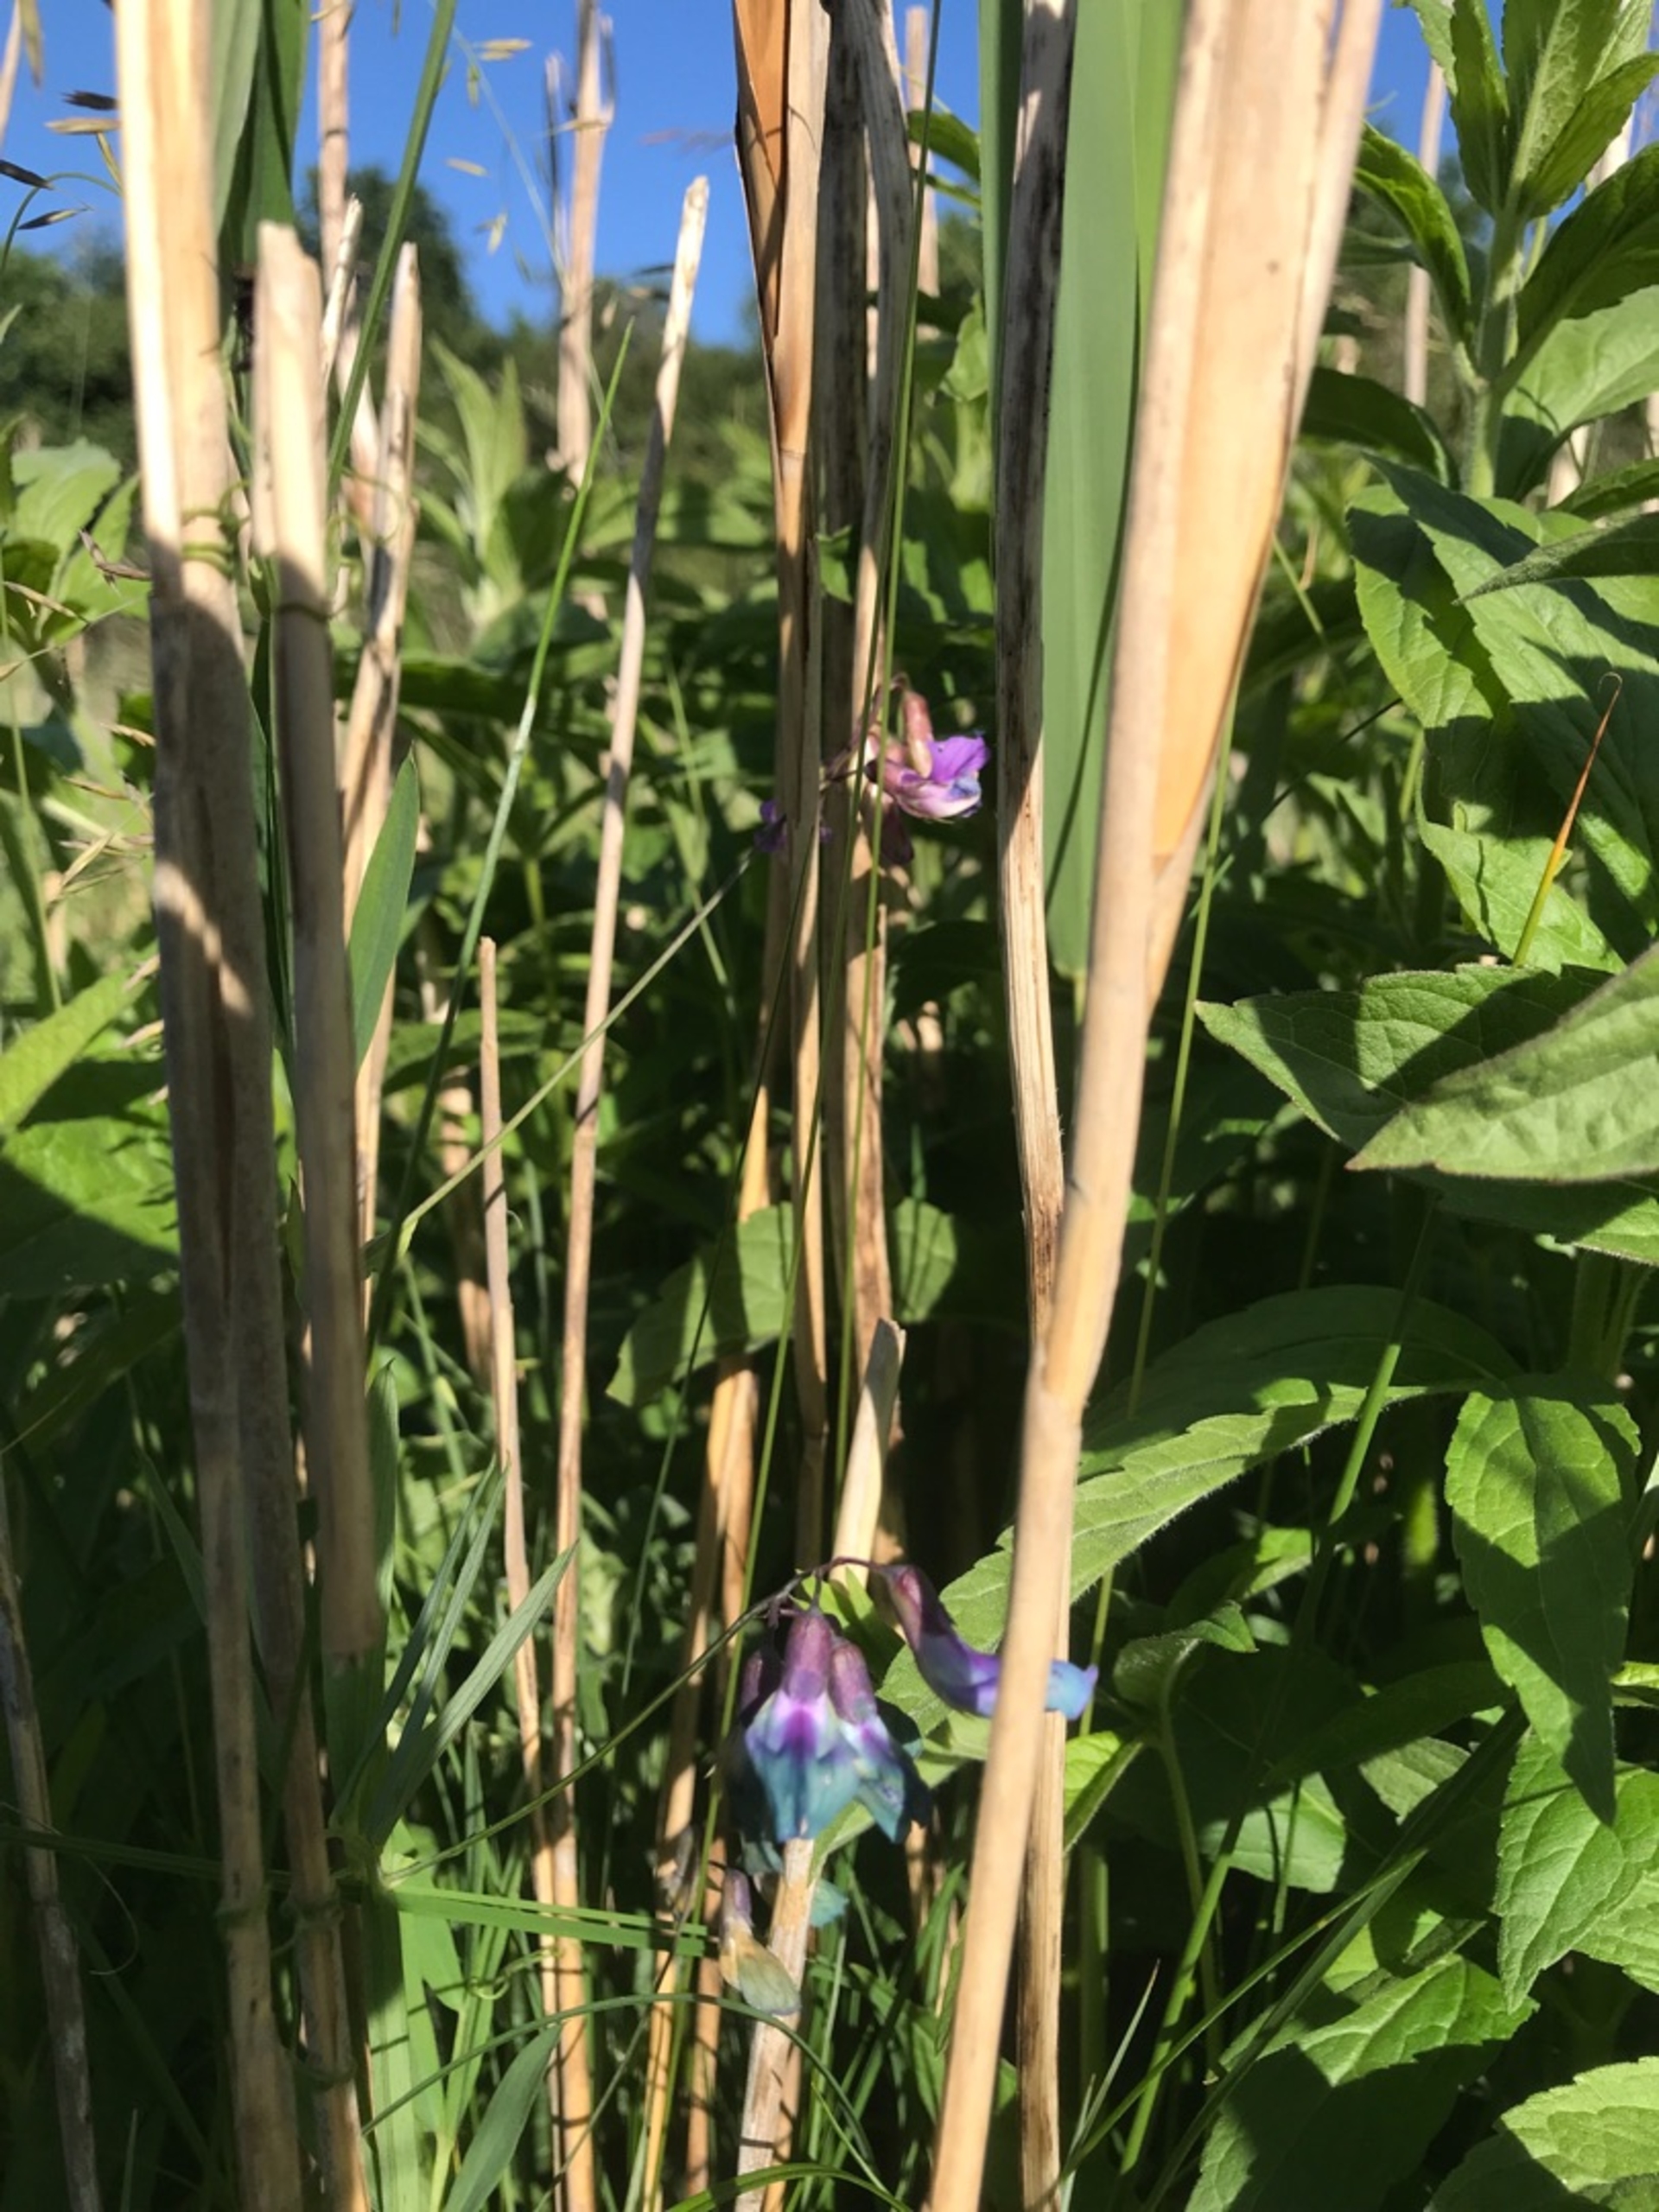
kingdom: Plantae
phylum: Tracheophyta
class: Magnoliopsida
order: Fabales
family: Fabaceae
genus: Lathyrus
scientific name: Lathyrus palustris
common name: Kær-fladbælg
